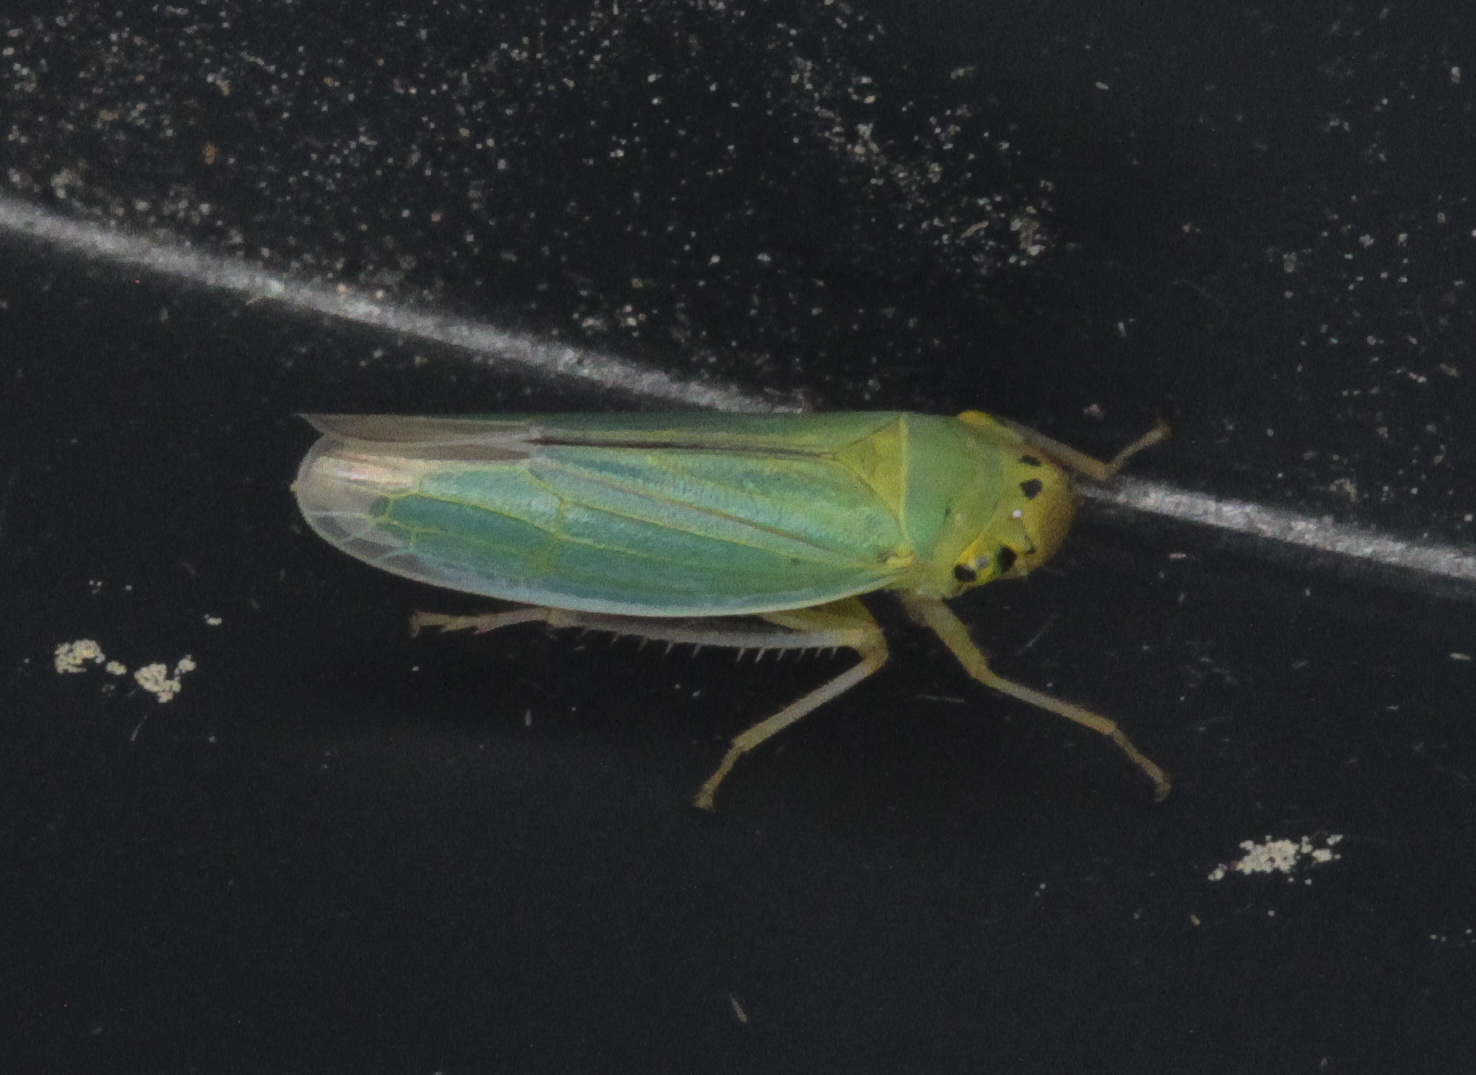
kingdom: Animalia
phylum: Arthropoda
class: Insecta
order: Hemiptera
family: Cicadellidae
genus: Cicadella
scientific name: Cicadella viridis
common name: Leafhopper
